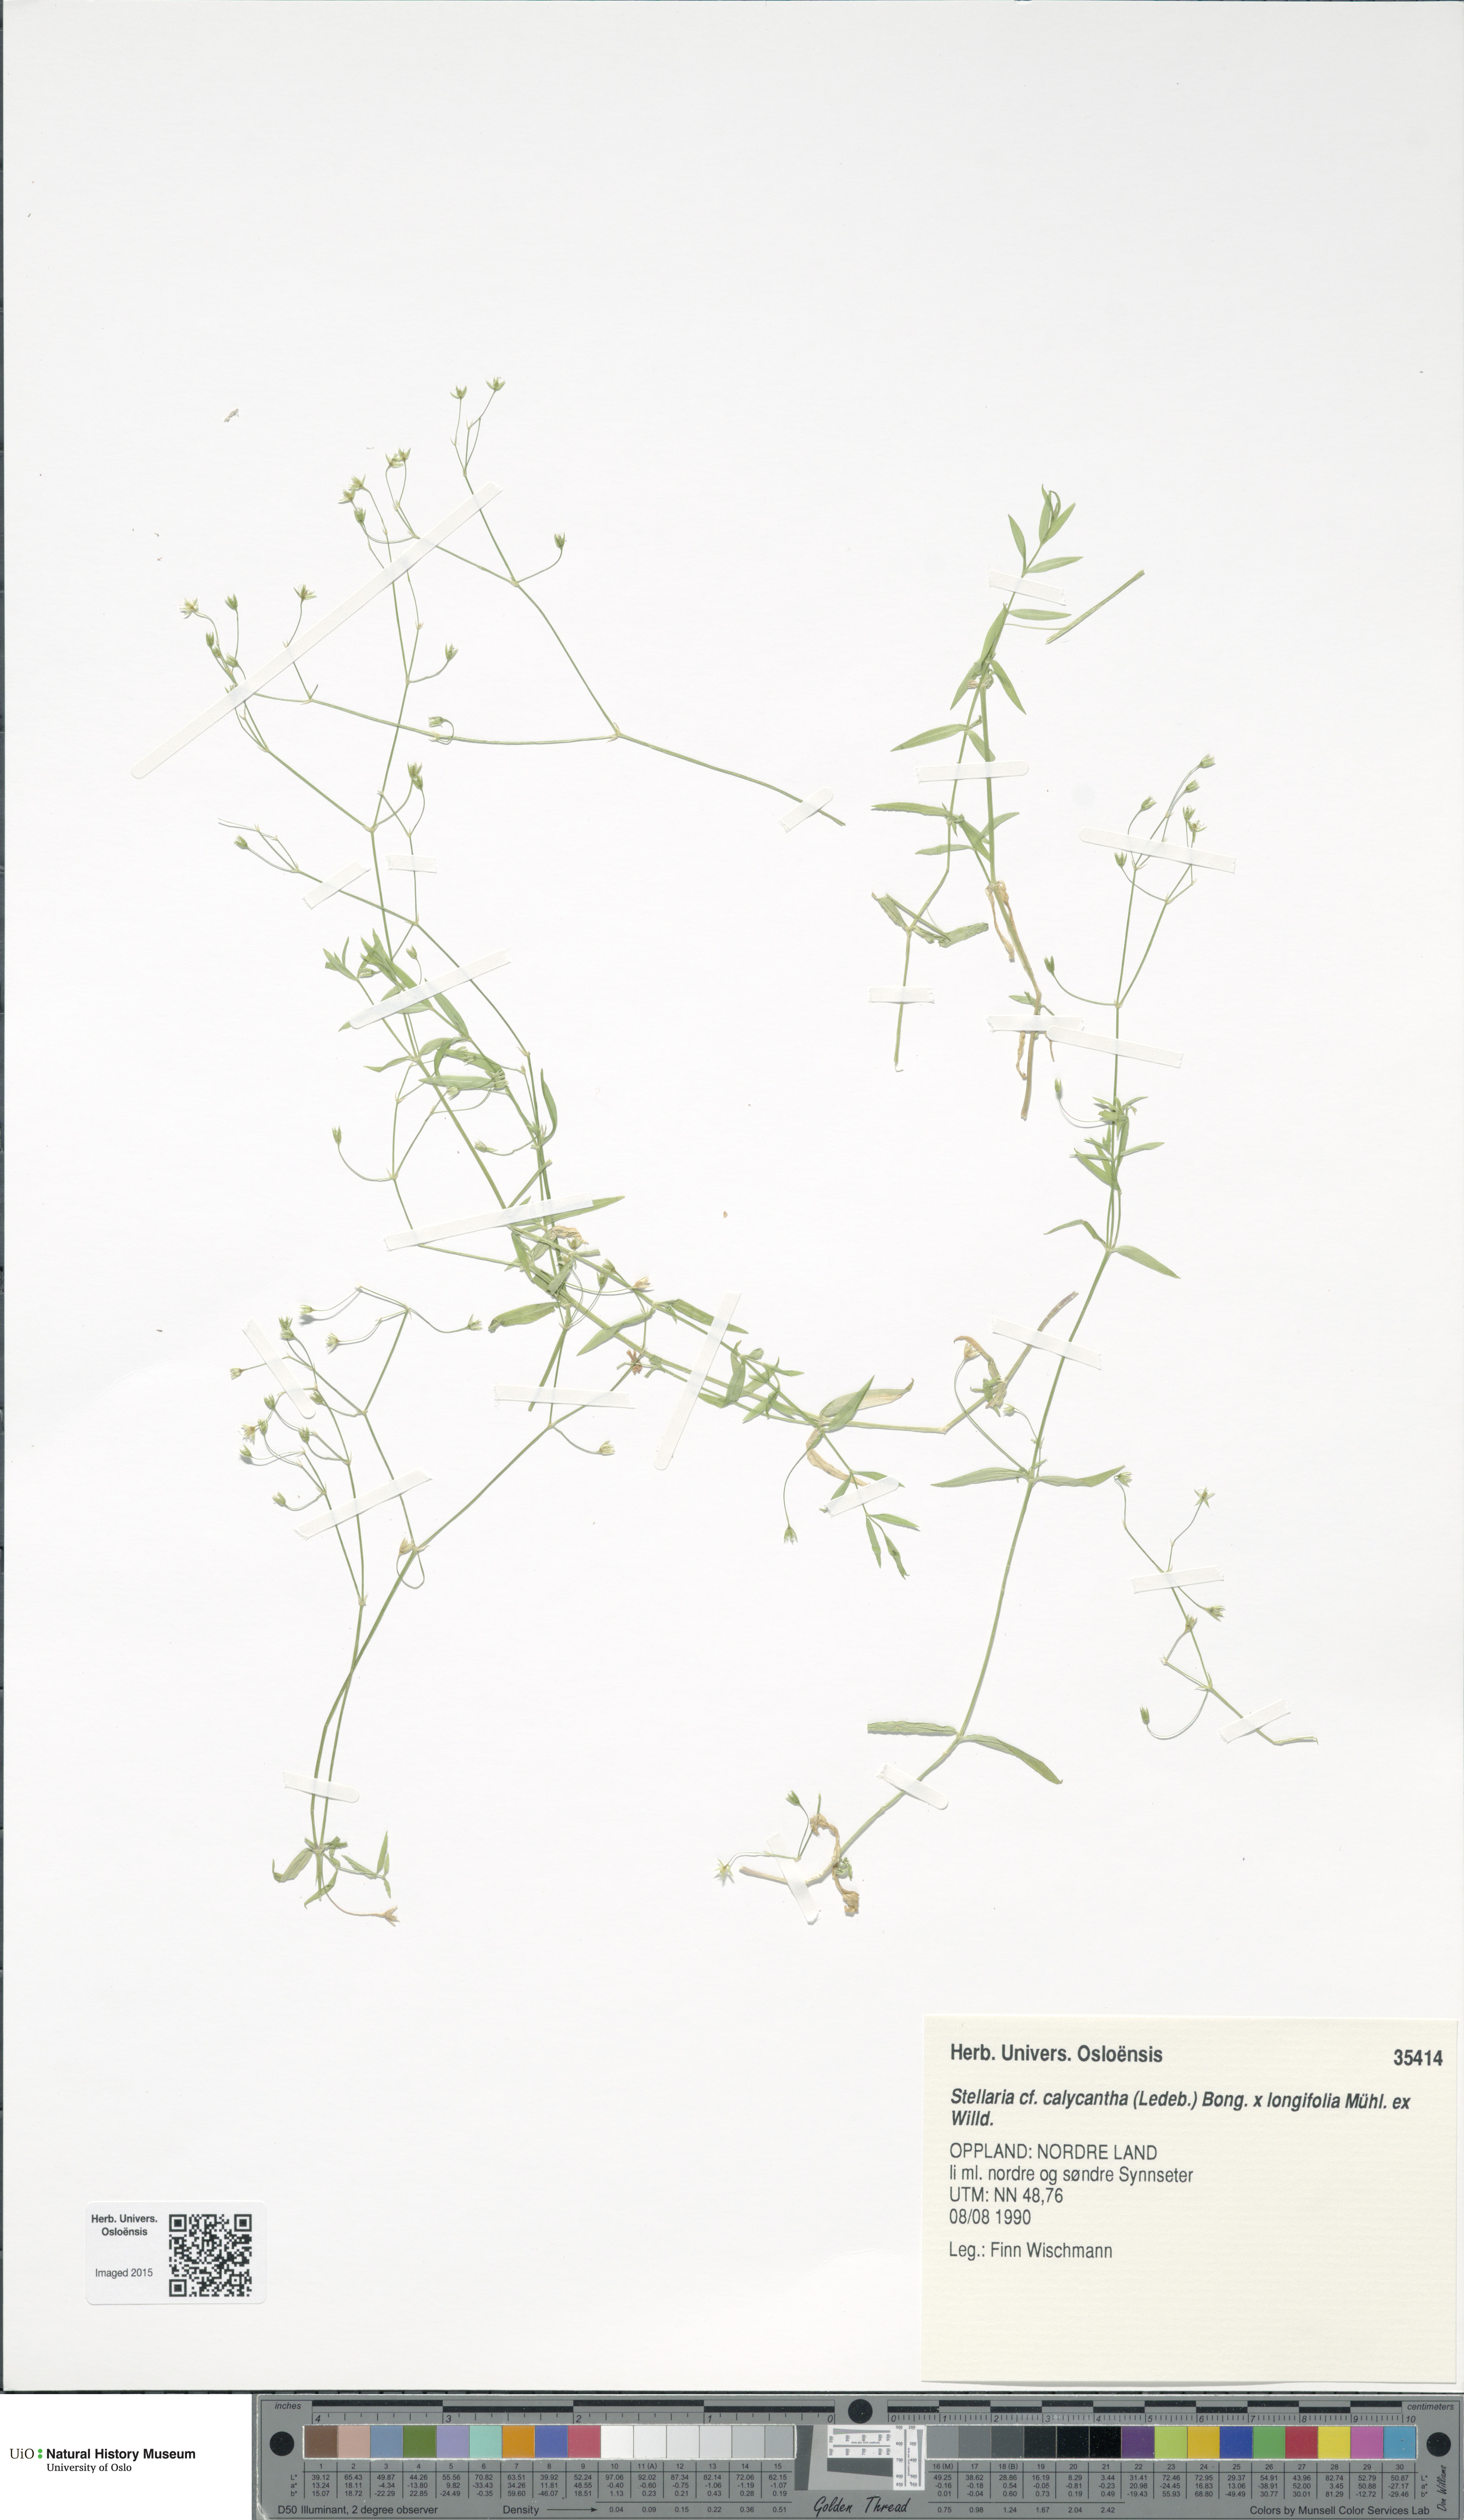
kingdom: Plantae
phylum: Tracheophyta
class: Magnoliopsida
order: Caryophyllales
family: Caryophyllaceae
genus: Stellaria
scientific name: Stellaria
